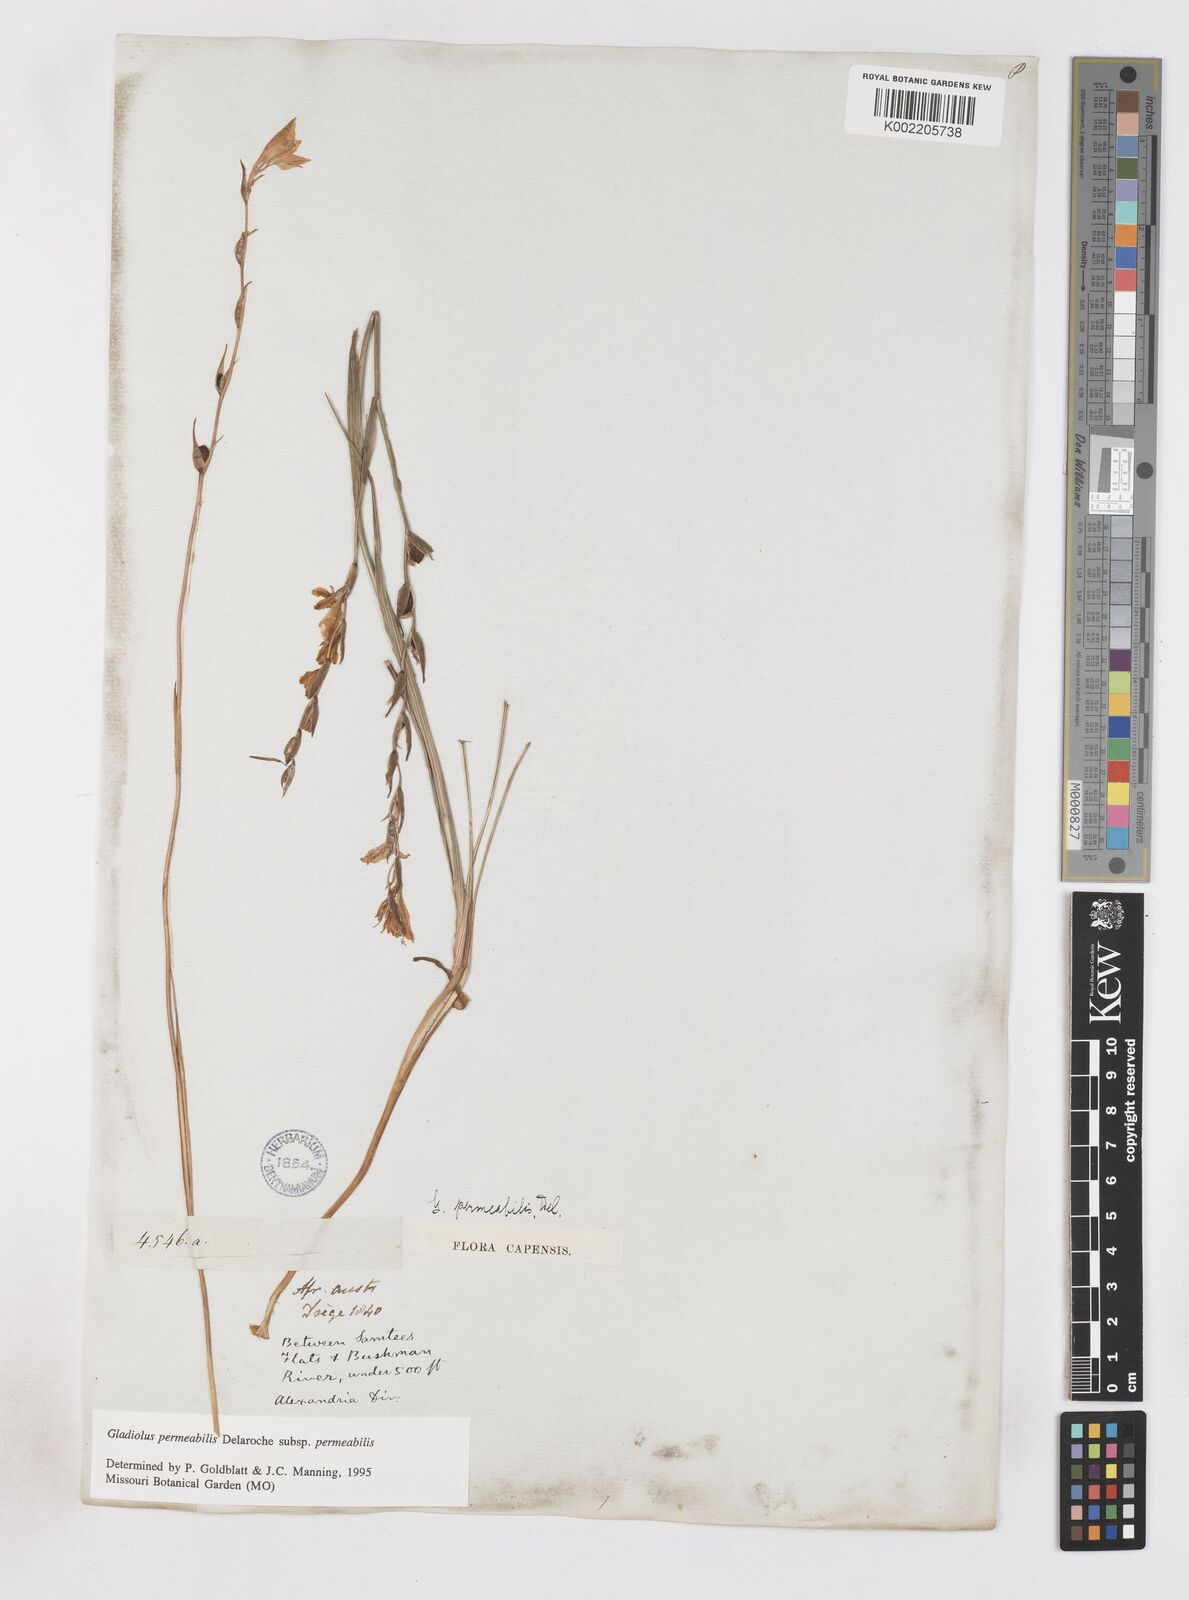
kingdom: Plantae
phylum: Tracheophyta
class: Liliopsida
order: Asparagales
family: Iridaceae
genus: Gladiolus
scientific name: Gladiolus permeabilis
